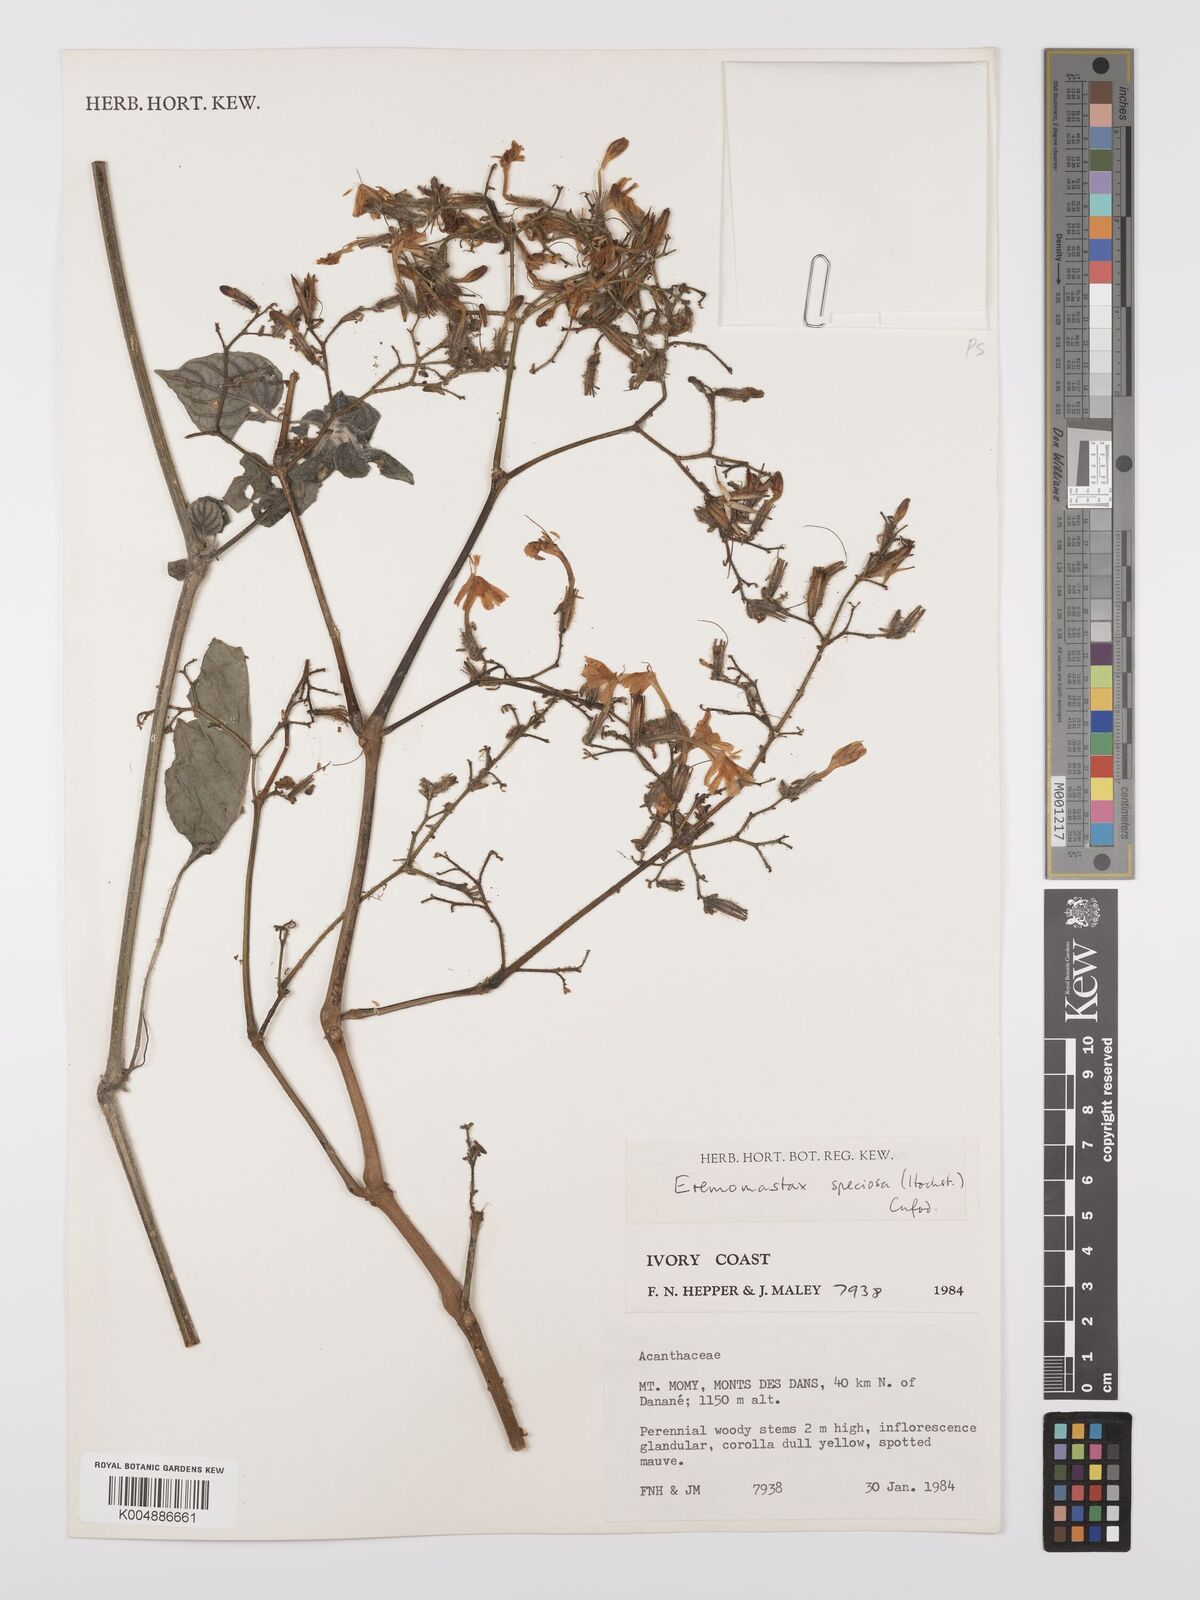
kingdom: Plantae
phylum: Tracheophyta
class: Magnoliopsida
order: Lamiales
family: Acanthaceae
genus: Eremomastax
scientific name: Eremomastax speciosa
